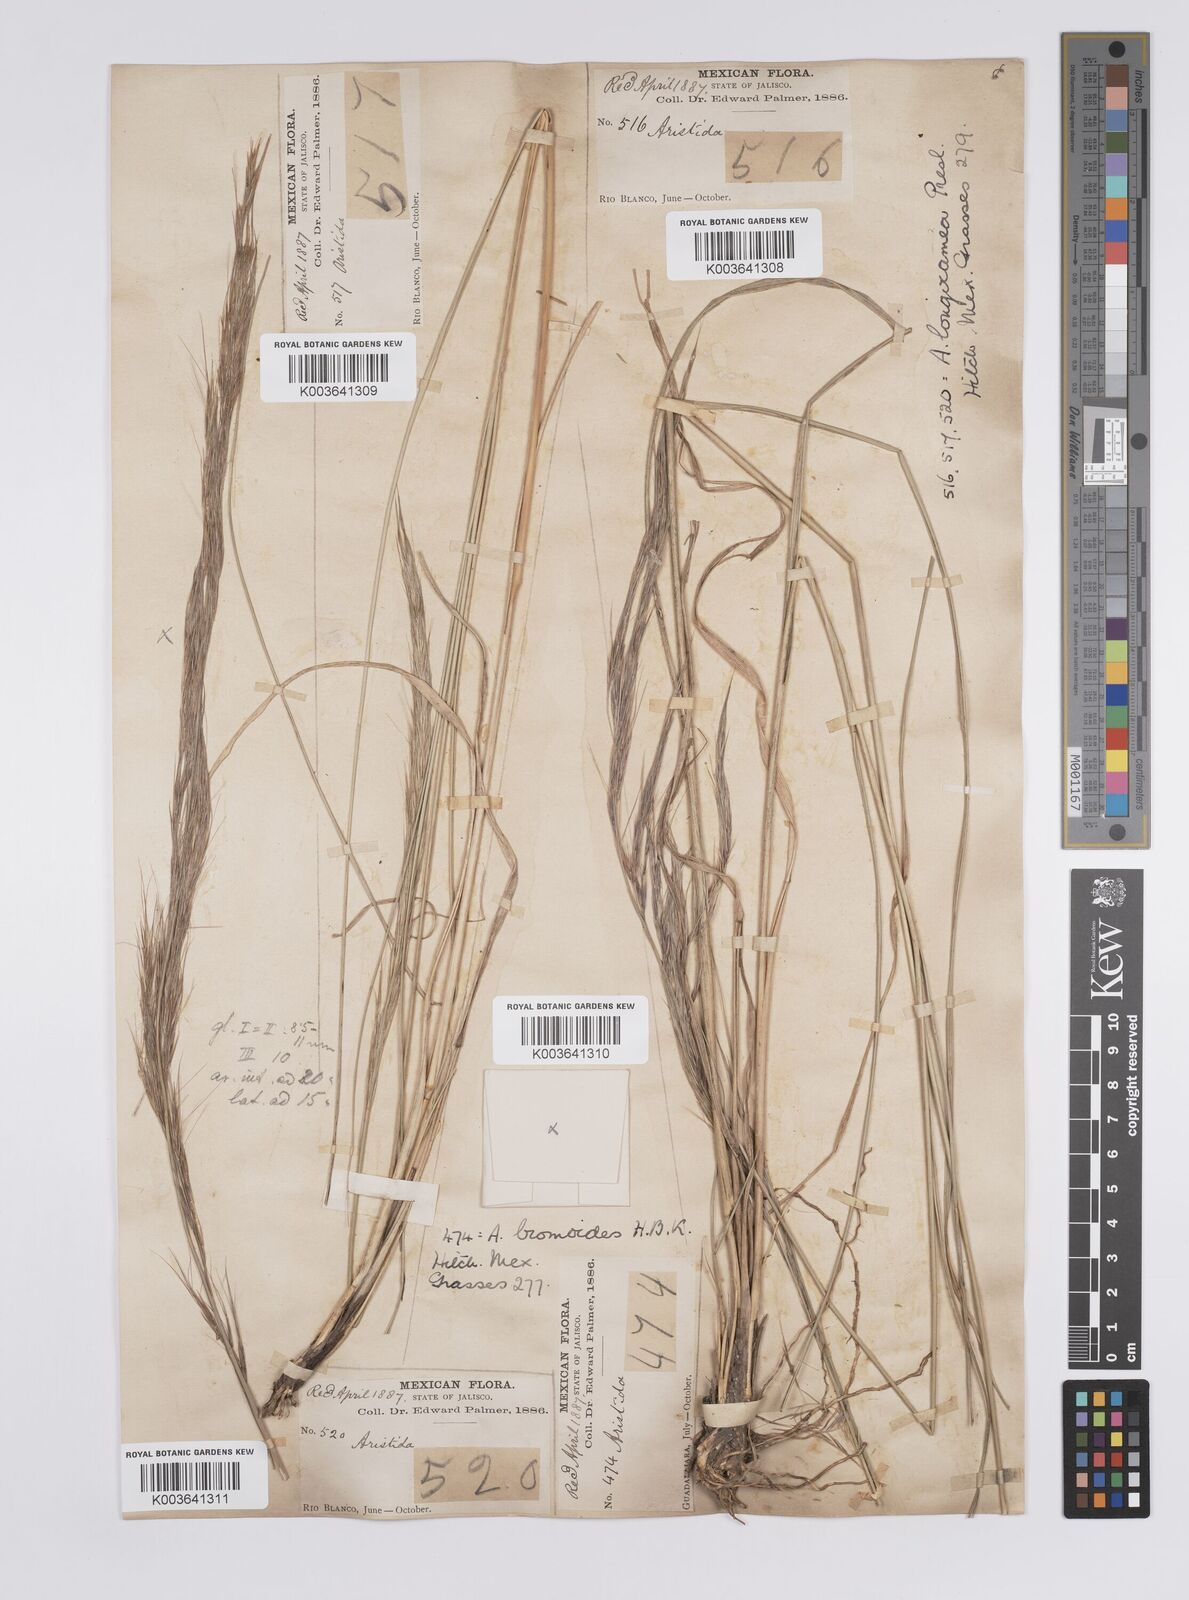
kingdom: Plantae
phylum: Tracheophyta
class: Liliopsida
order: Poales
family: Poaceae
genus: Aristida
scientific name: Aristida laxa
